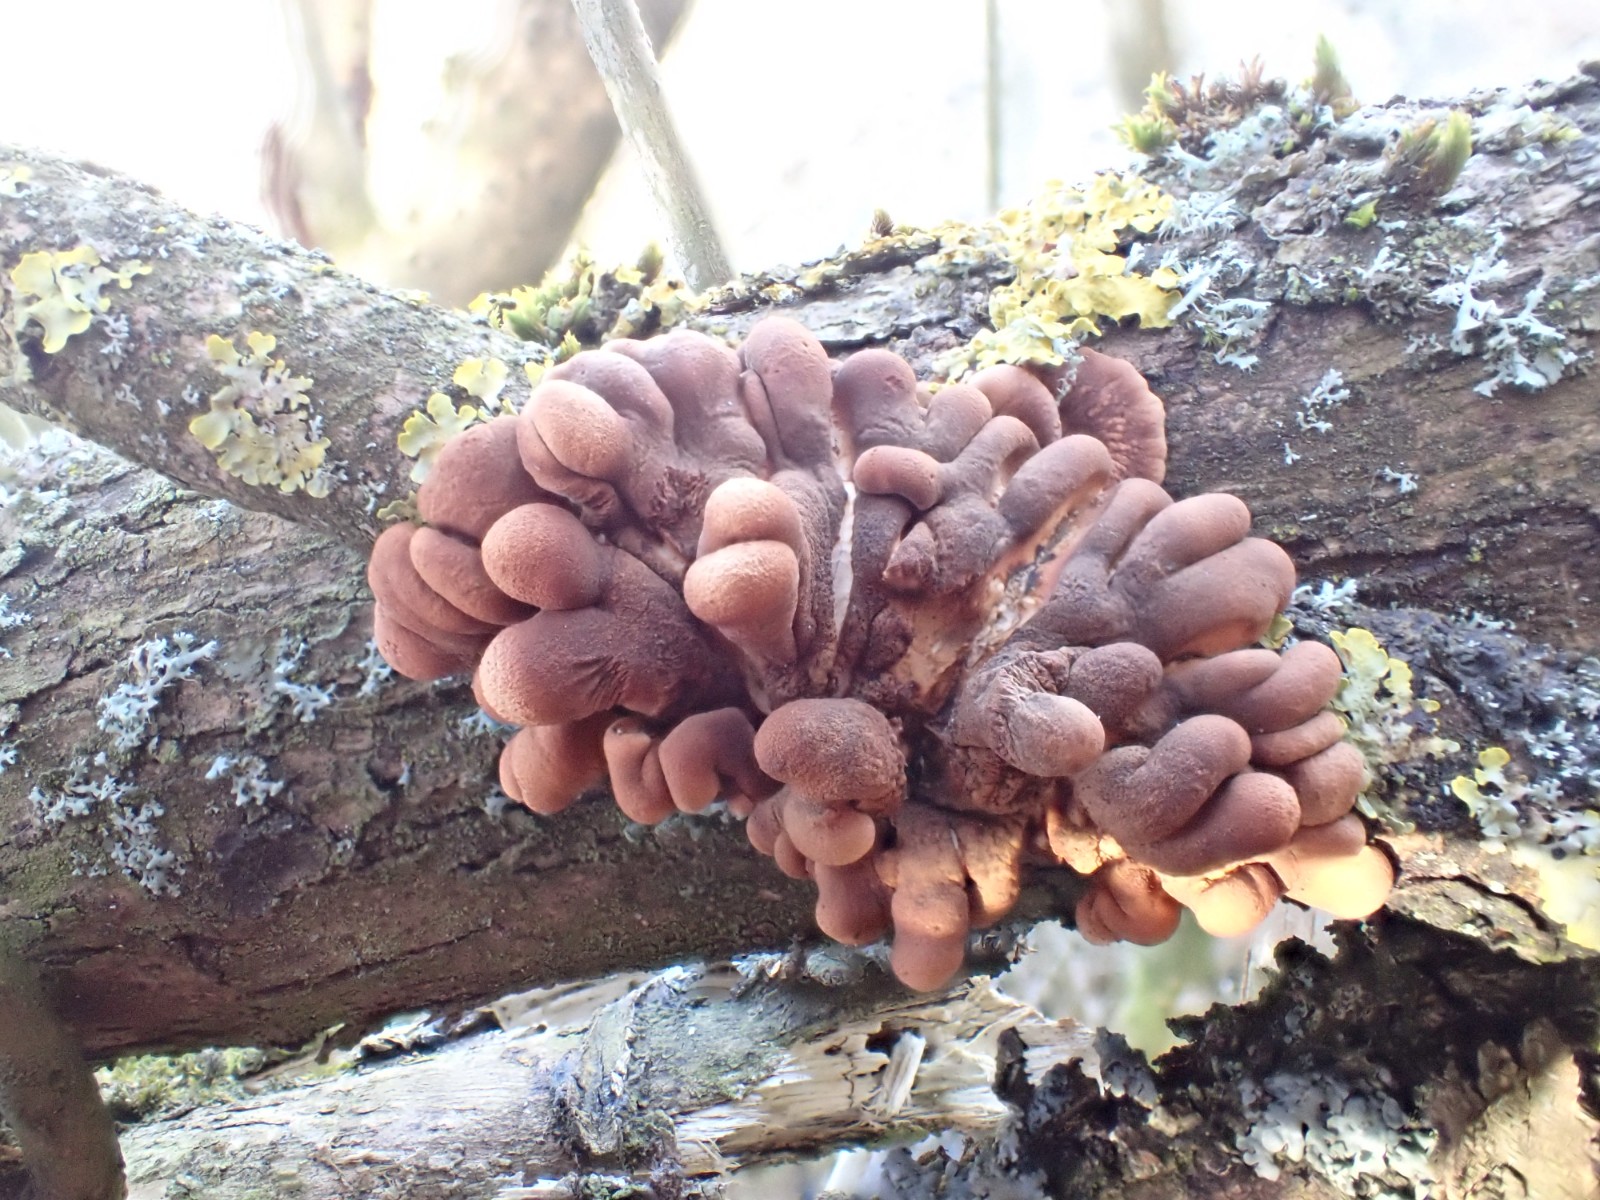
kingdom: Fungi
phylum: Ascomycota
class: Sordariomycetes
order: Hypocreales
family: Hypocreaceae
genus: Hypocreopsis
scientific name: Hypocreopsis lichenoides
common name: pilfinger
